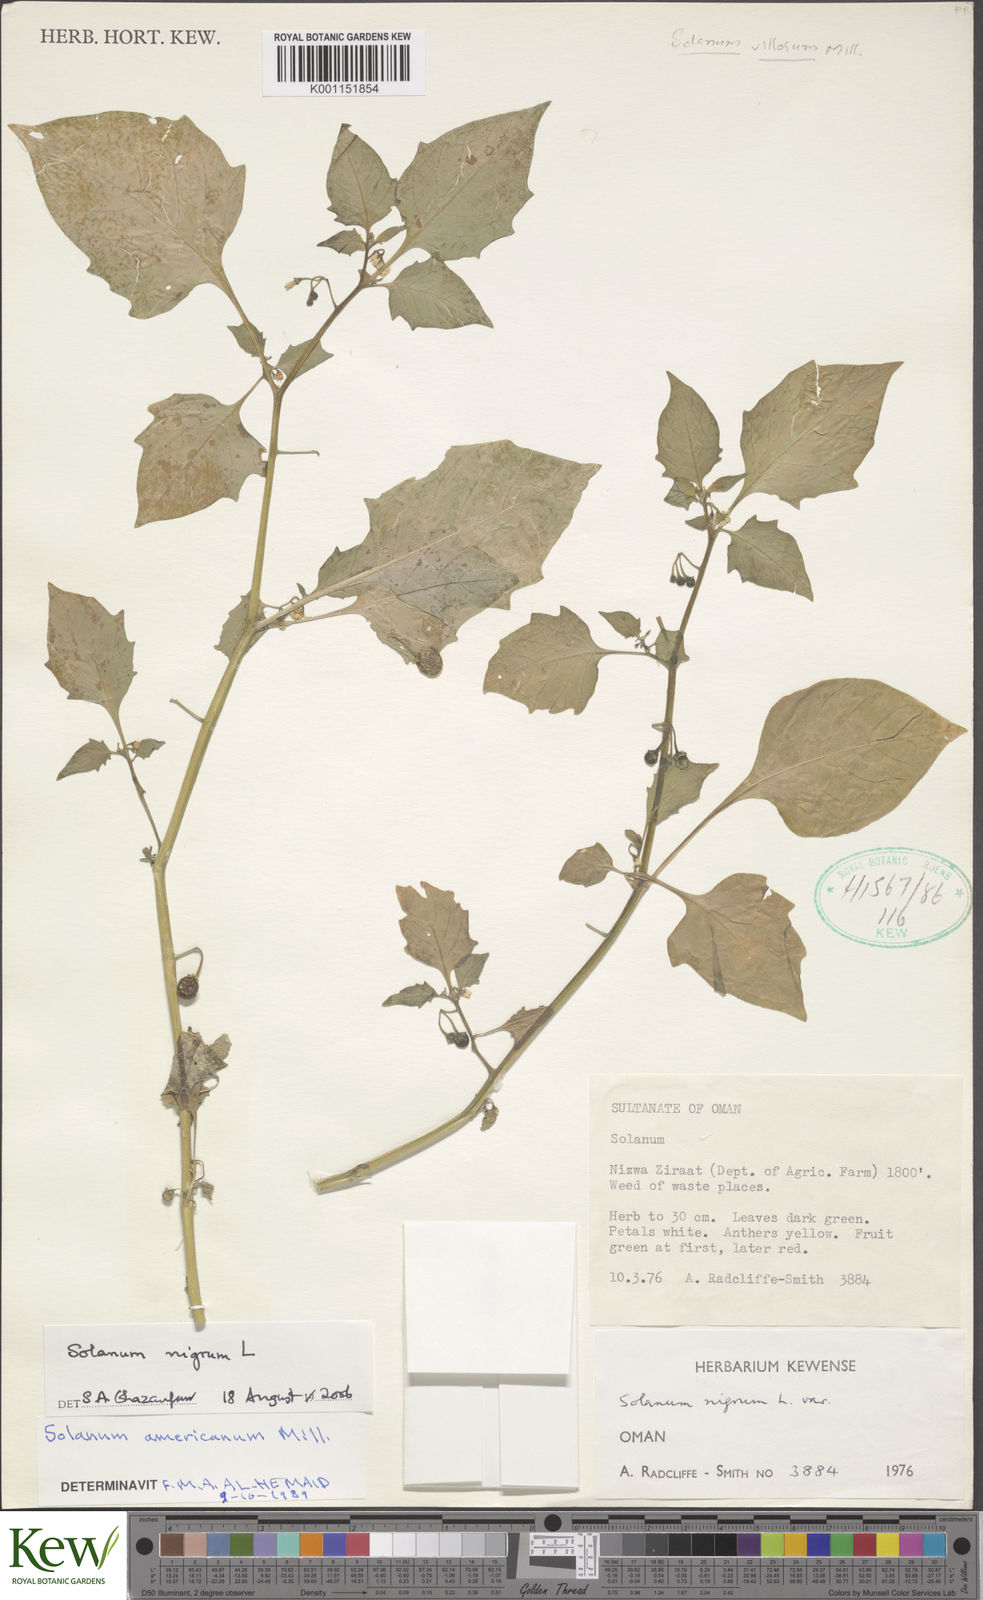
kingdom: Plantae
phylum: Tracheophyta
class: Magnoliopsida
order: Solanales
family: Solanaceae
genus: Solanum
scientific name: Solanum americanum
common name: American black nightshade
